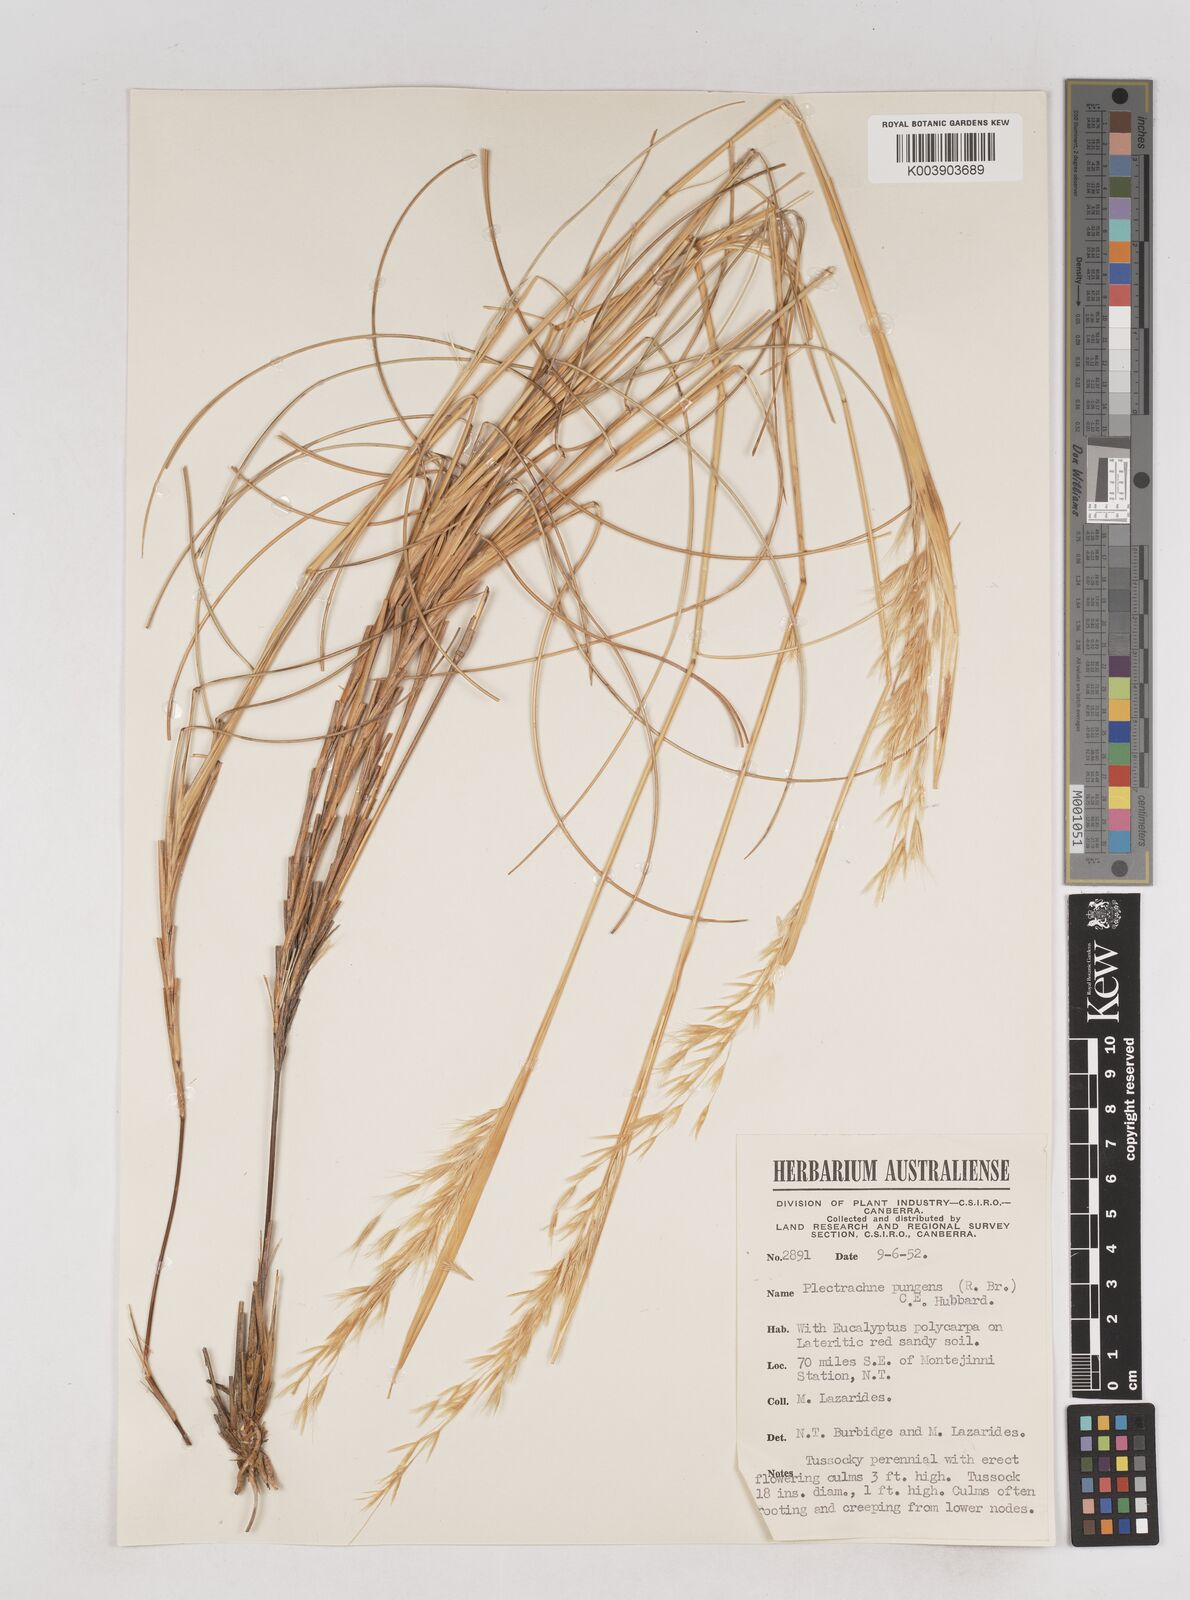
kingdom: Plantae
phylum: Tracheophyta
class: Liliopsida
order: Poales
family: Poaceae
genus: Triodia
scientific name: Triodia bitextura
